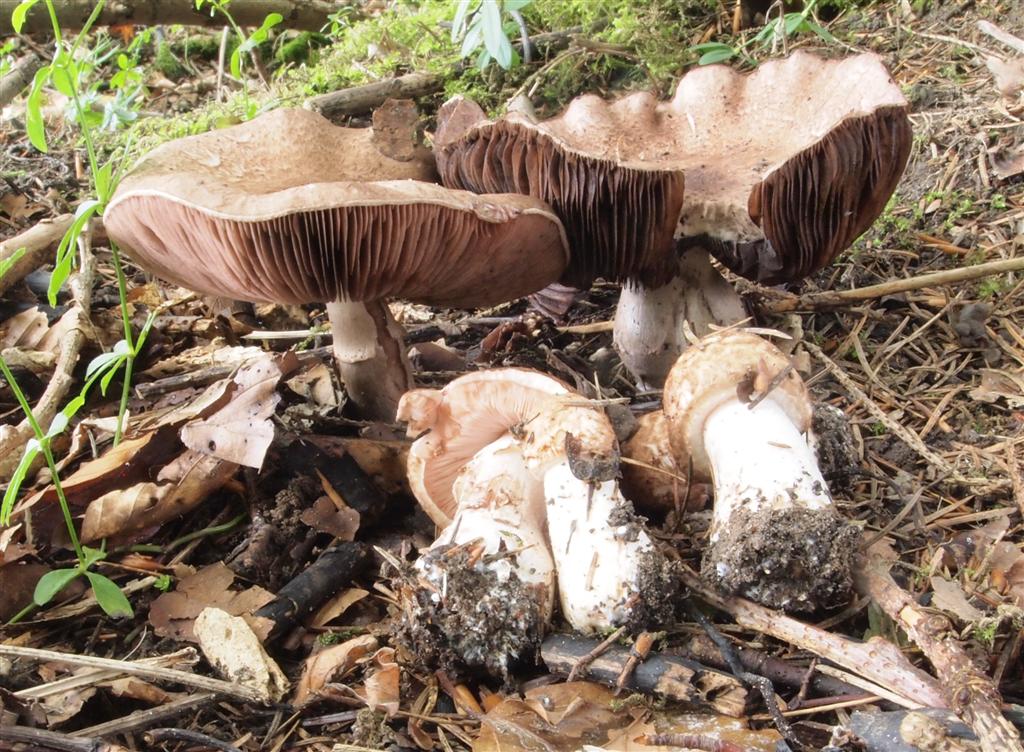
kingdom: Fungi
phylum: Basidiomycota
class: Agaricomycetes
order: Agaricales
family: Agaricaceae
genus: Agaricus
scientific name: Agaricus langei
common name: stor blod-champignon
